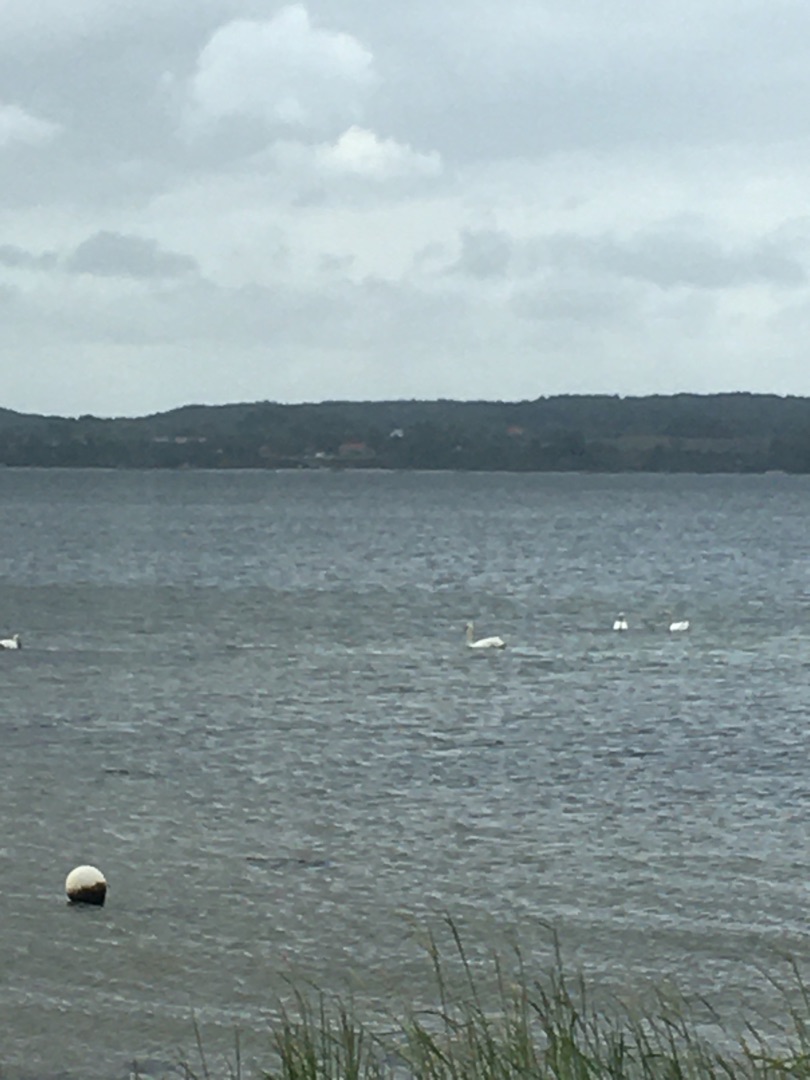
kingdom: Animalia
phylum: Chordata
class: Aves
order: Anseriformes
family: Anatidae
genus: Cygnus
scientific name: Cygnus olor
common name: Knopsvane
